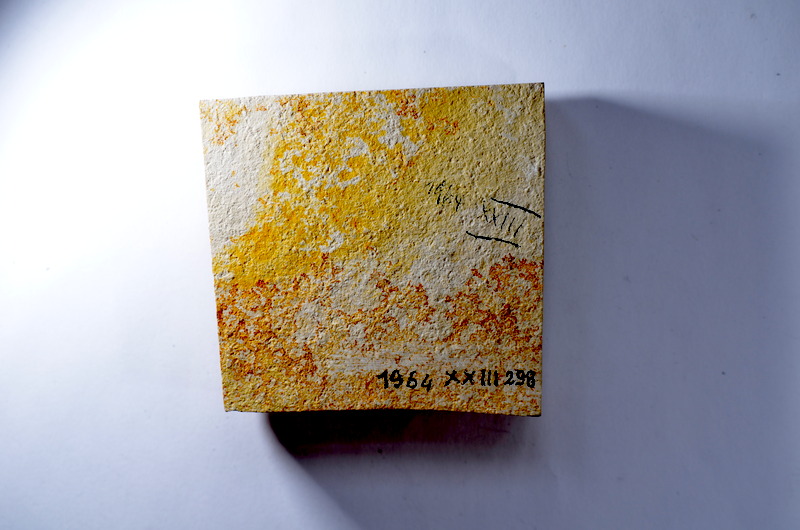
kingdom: Animalia
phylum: Chordata
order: Salmoniformes
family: Orthogonikleithridae
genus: Leptolepides
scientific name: Leptolepides
